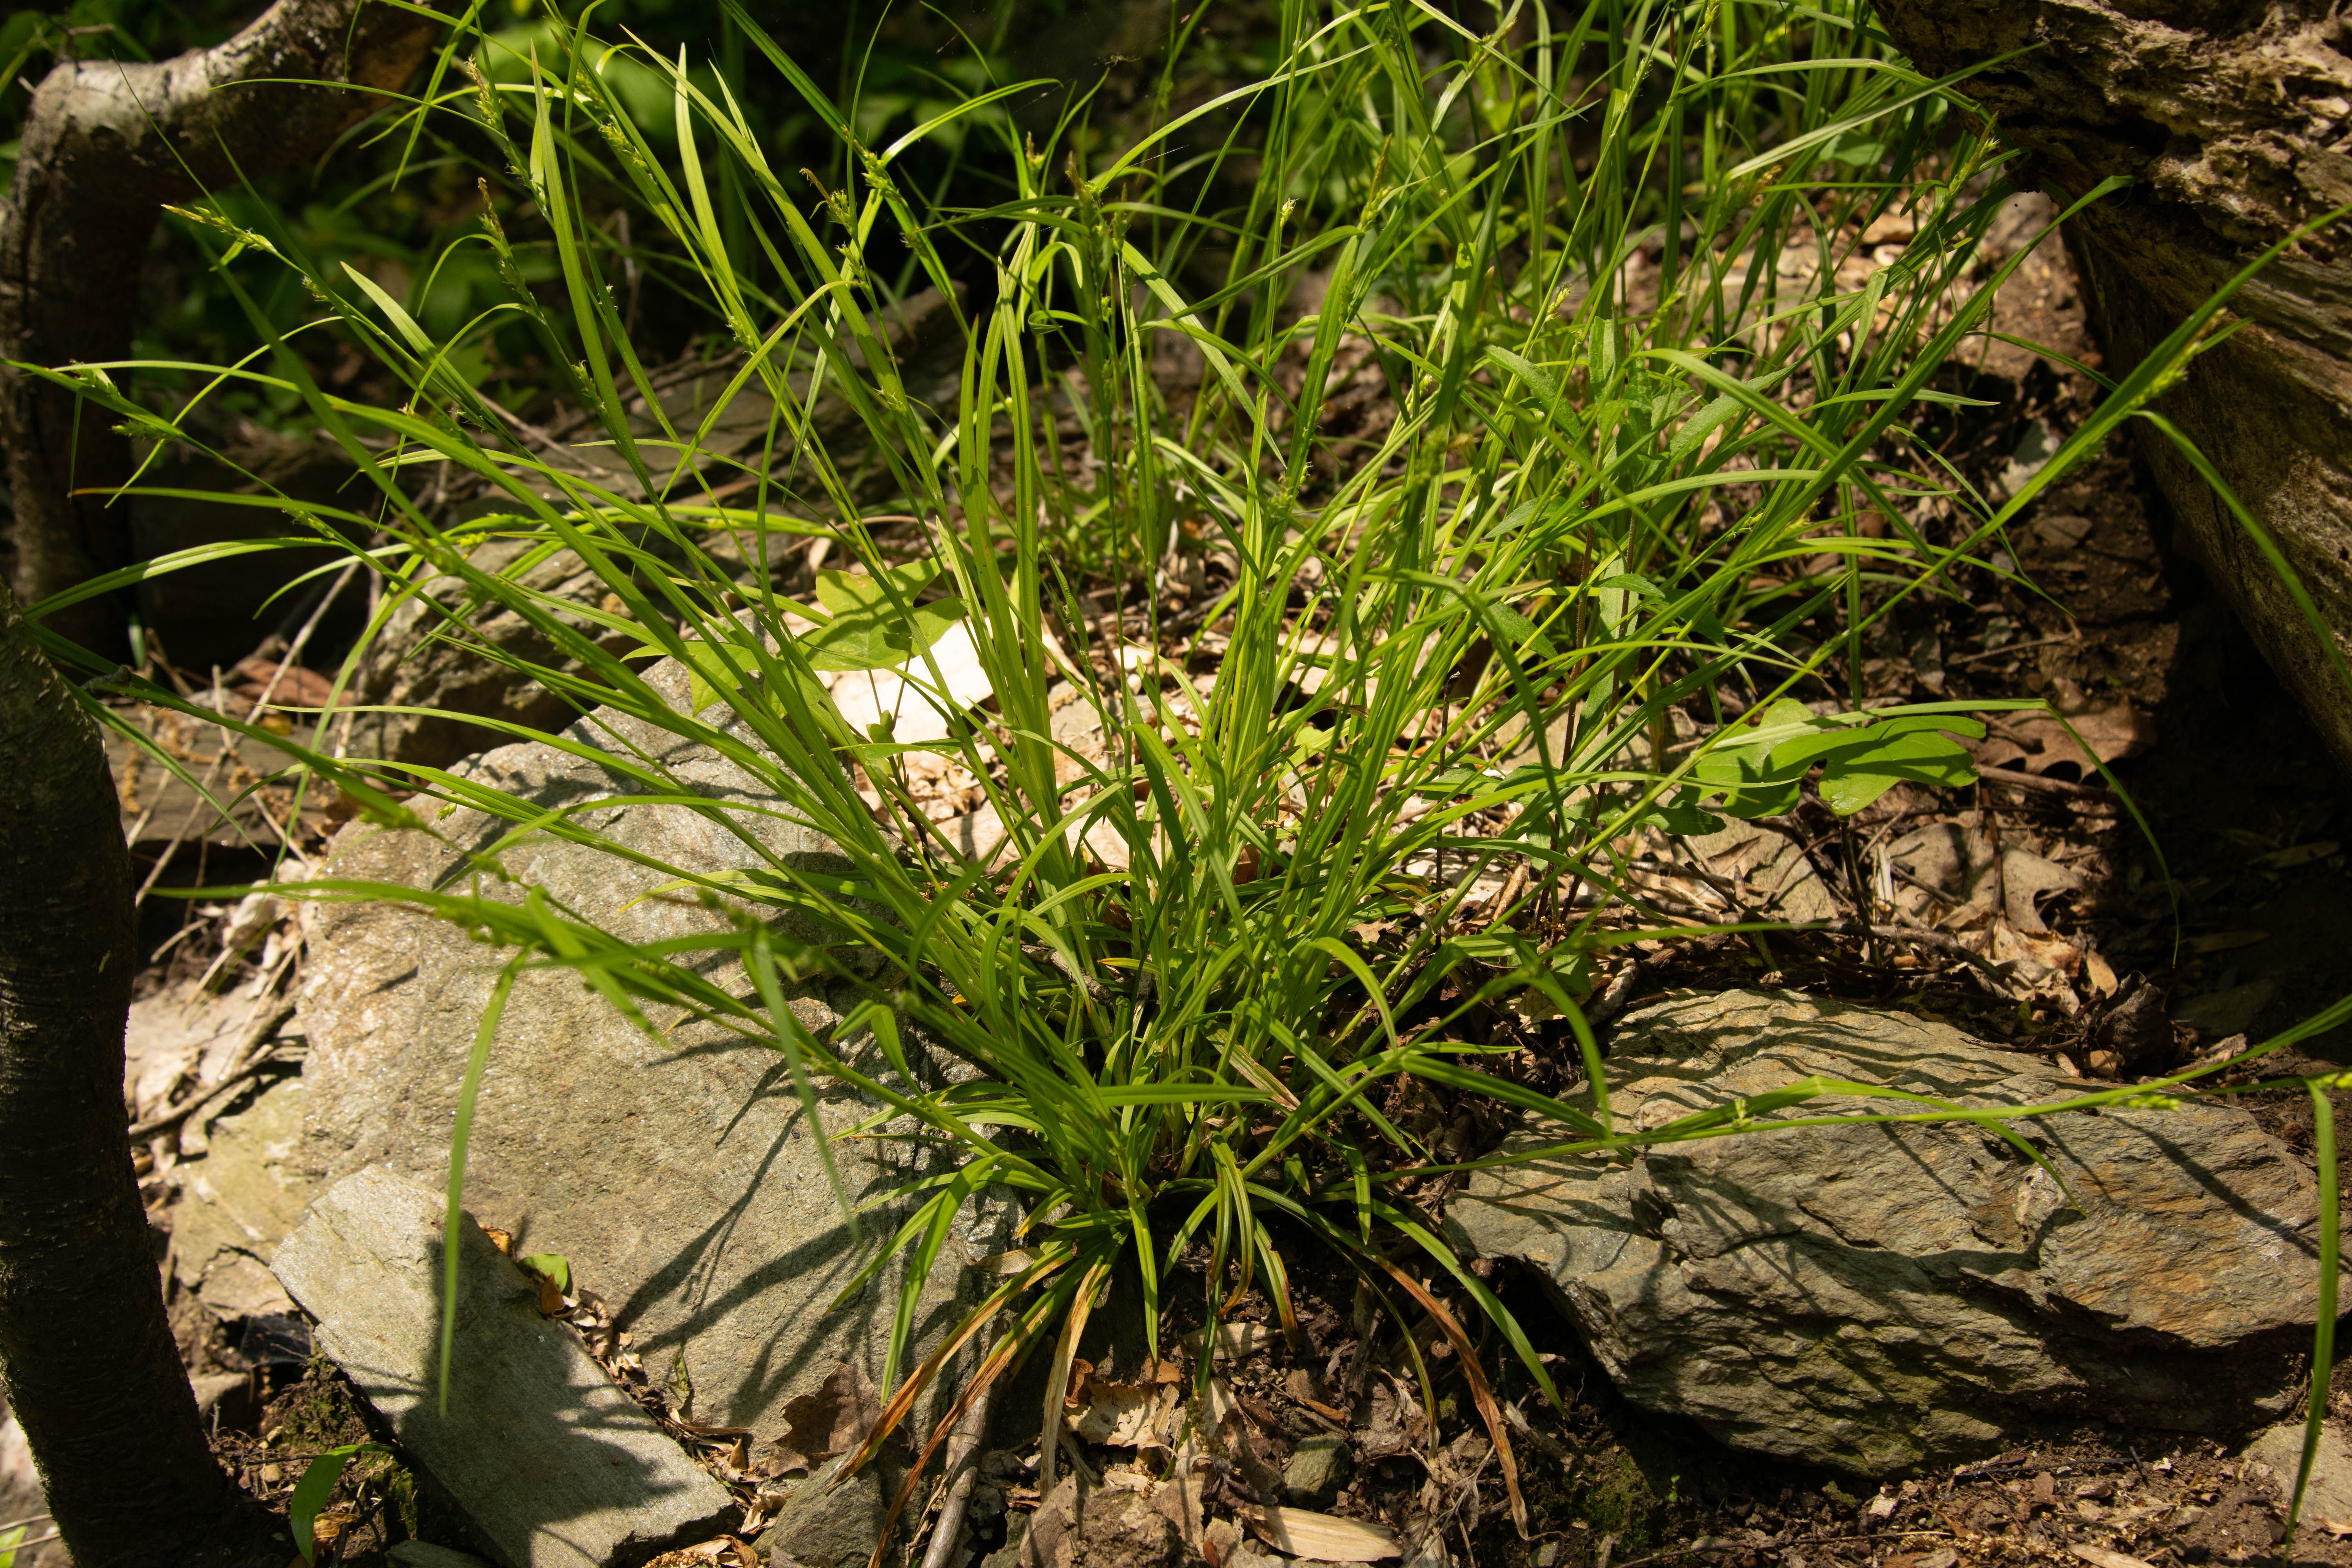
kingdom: Plantae
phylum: Tracheophyta
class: Liliopsida
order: Poales
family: Cyperaceae
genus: Carex
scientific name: Carex grisea
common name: Eastern narrow-leaved sedge
